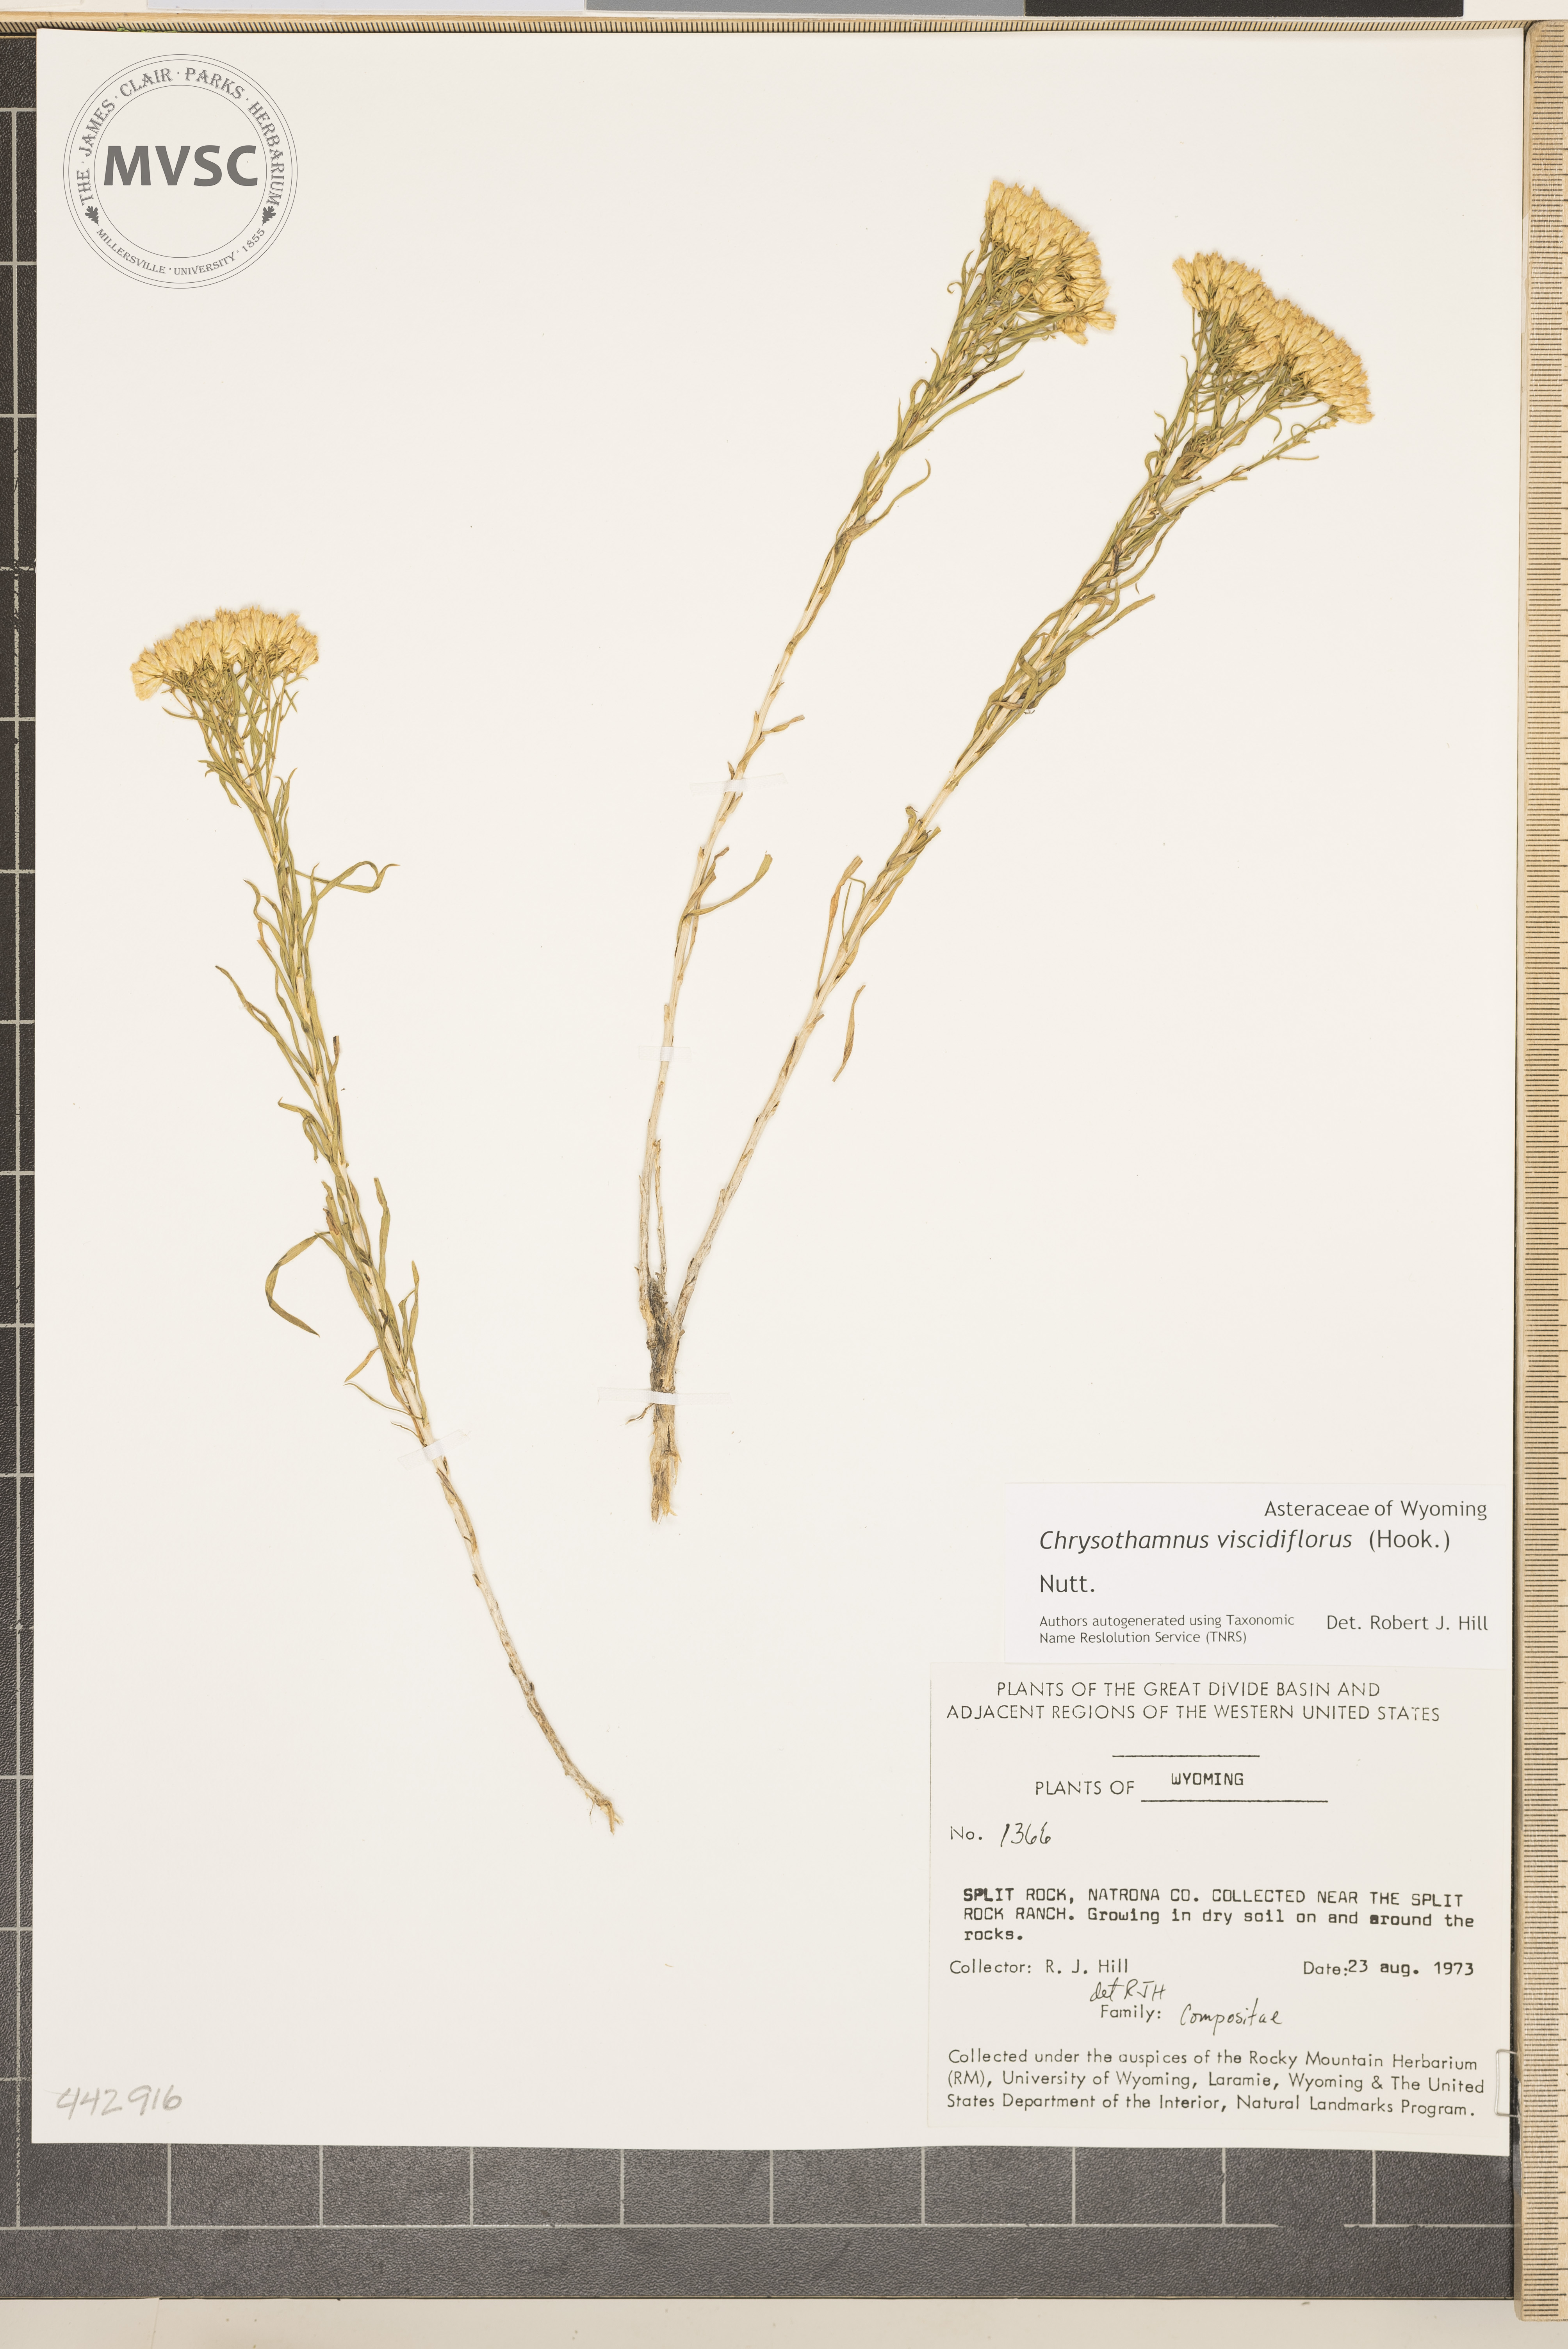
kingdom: Plantae
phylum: Tracheophyta
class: Magnoliopsida
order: Asterales
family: Asteraceae
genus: Chrysothamnus
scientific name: Chrysothamnus viscidiflorus
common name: Yellow rabbitbrush
